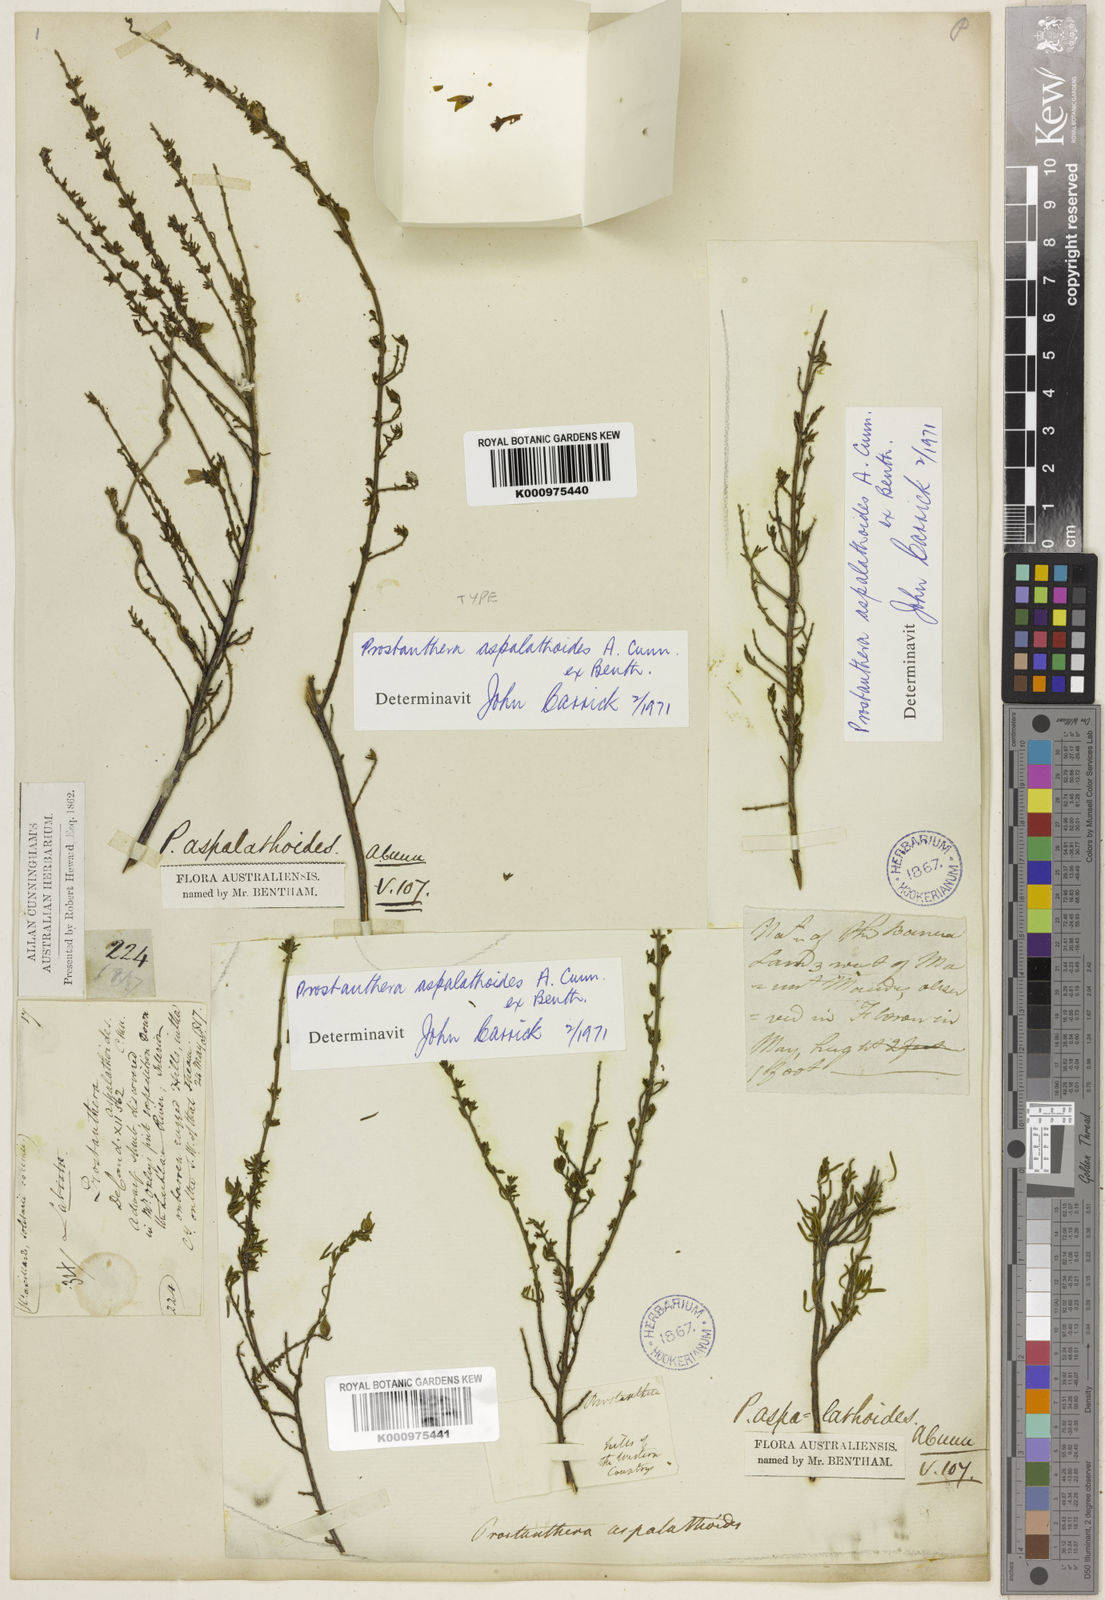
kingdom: Plantae
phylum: Tracheophyta
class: Magnoliopsida
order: Lamiales
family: Lamiaceae
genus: Prostanthera
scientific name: Prostanthera aspalathoides
